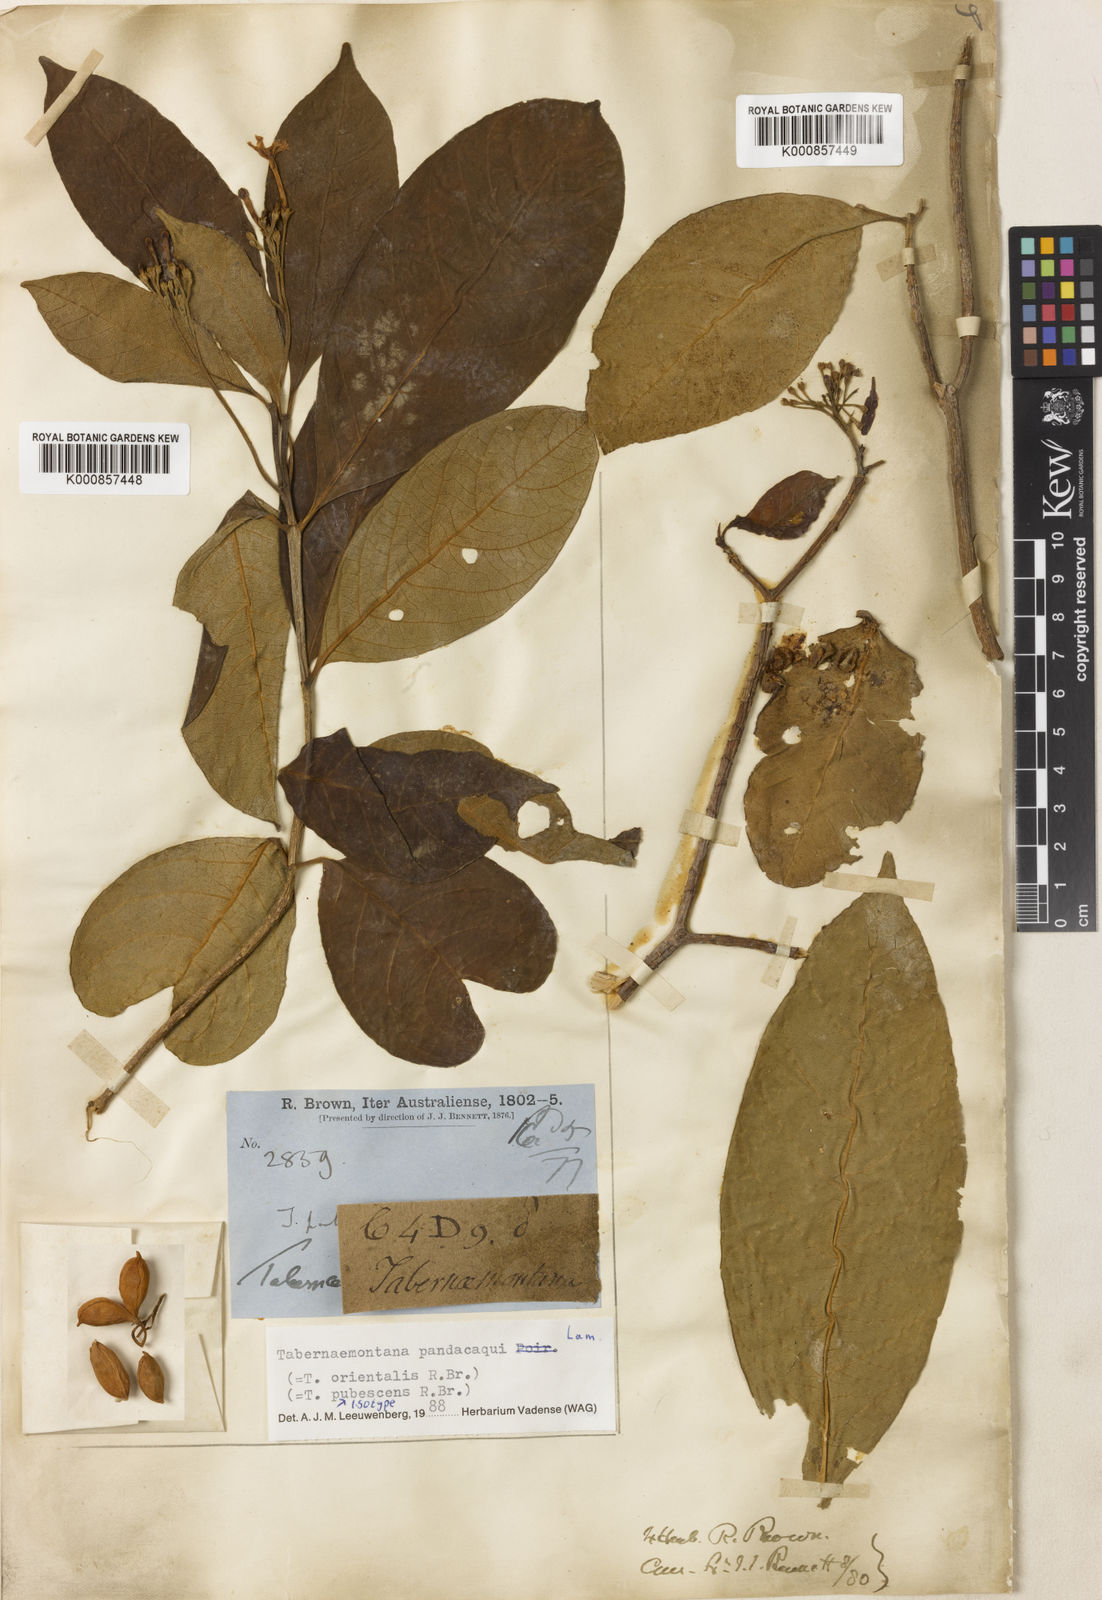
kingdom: Plantae
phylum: Tracheophyta
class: Magnoliopsida
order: Gentianales
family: Apocynaceae
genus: Tabernaemontana
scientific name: Tabernaemontana
